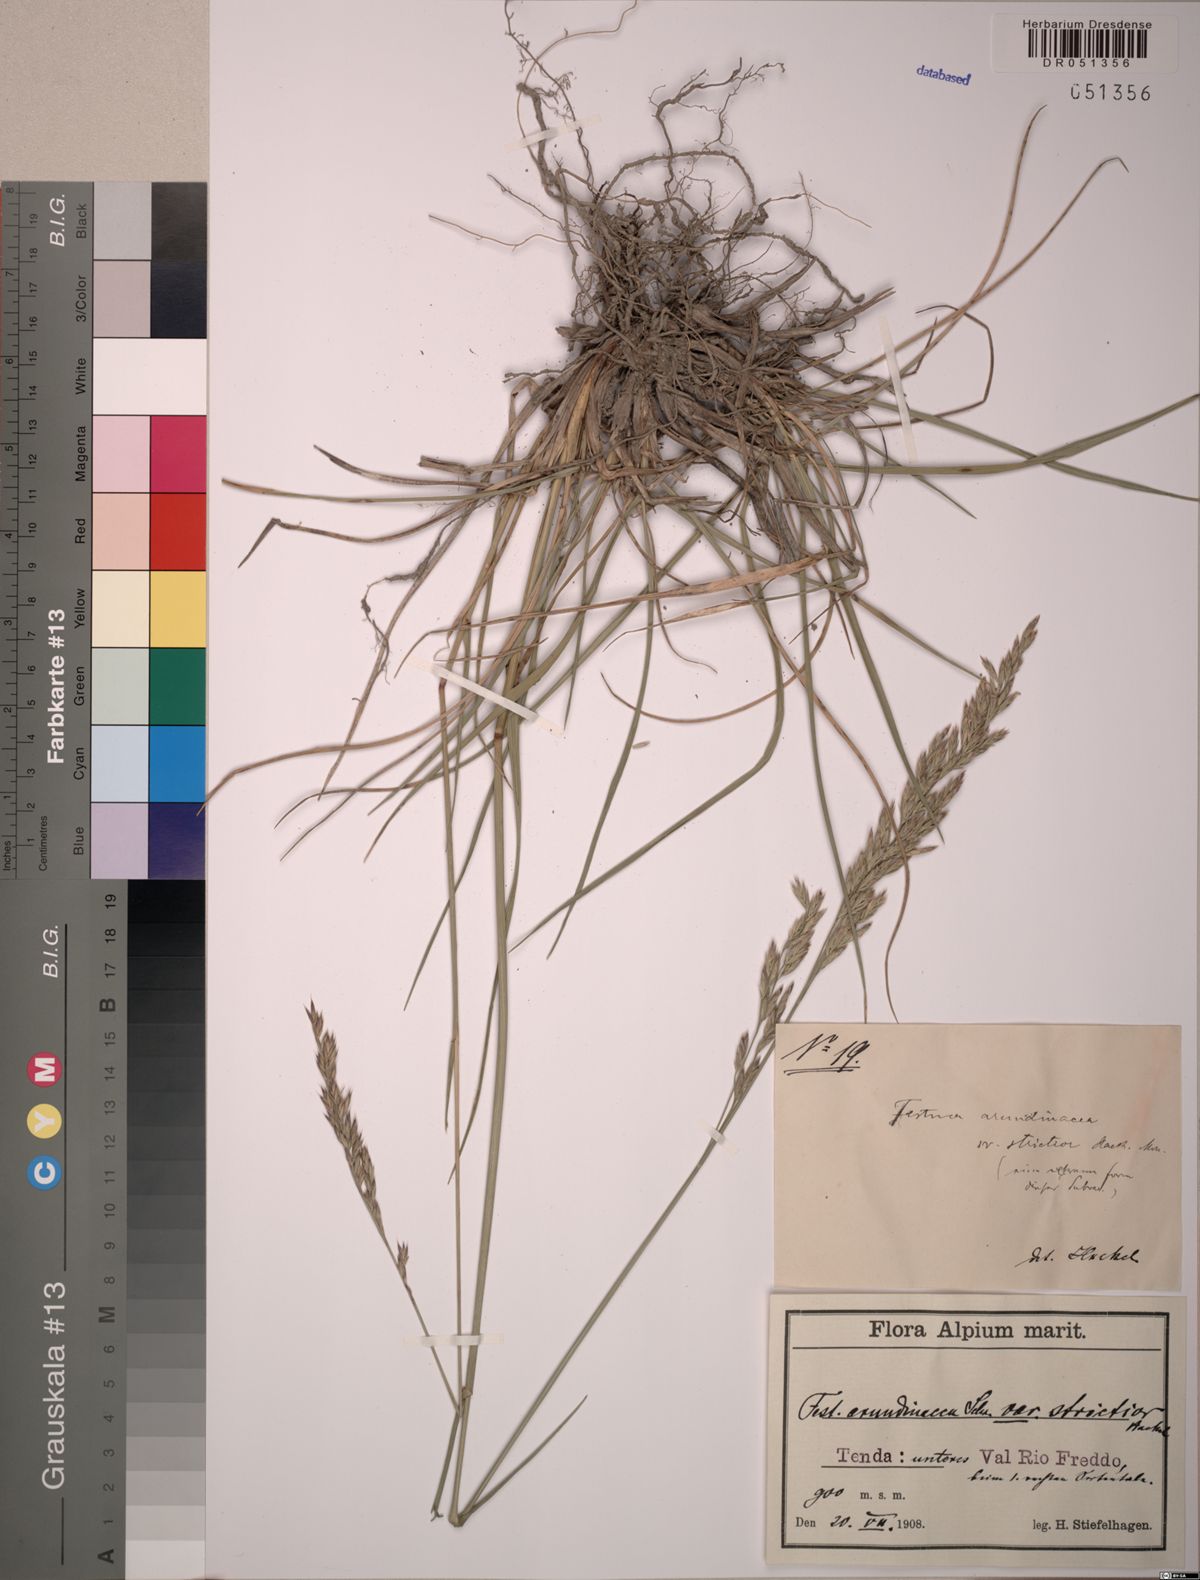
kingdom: Plantae
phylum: Tracheophyta
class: Liliopsida
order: Poales
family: Poaceae
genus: Lolium
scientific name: Lolium arundinaceum
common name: Reed fescue
